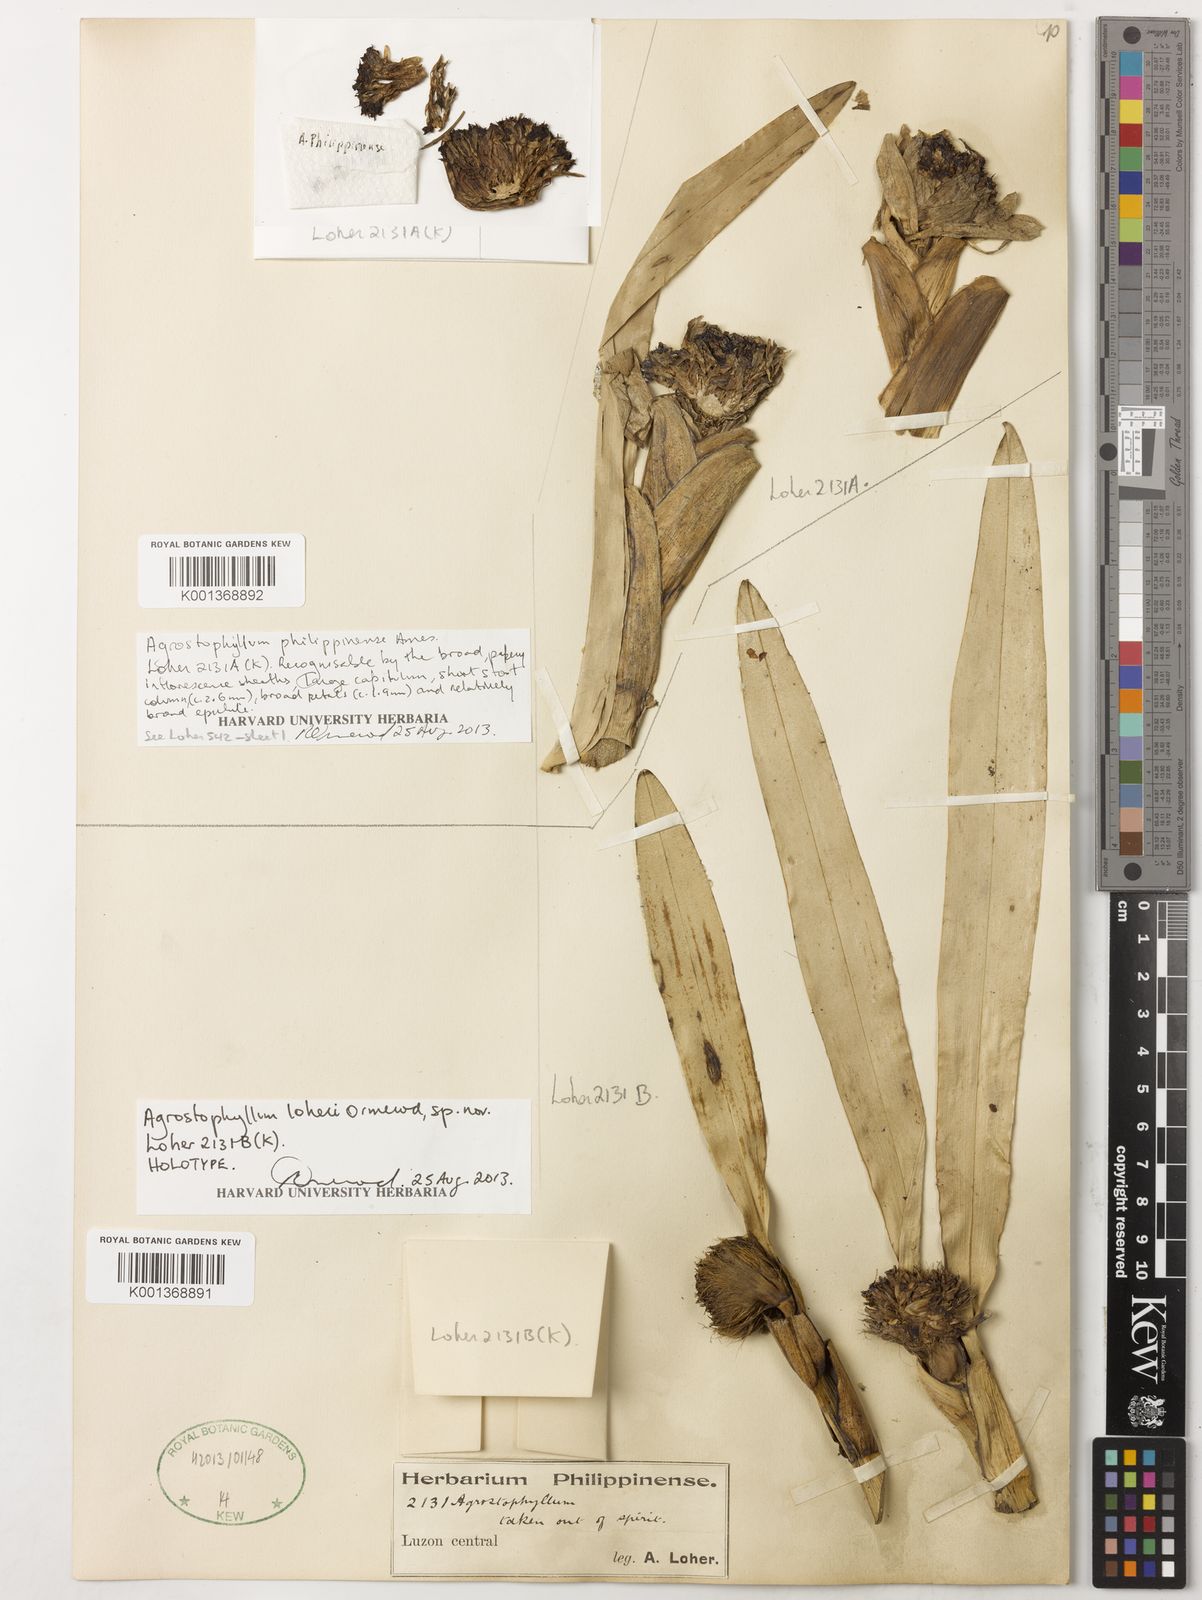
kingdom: Plantae
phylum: Tracheophyta
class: Liliopsida
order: Asparagales
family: Orchidaceae
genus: Agrostophyllum
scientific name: Agrostophyllum philippinense
